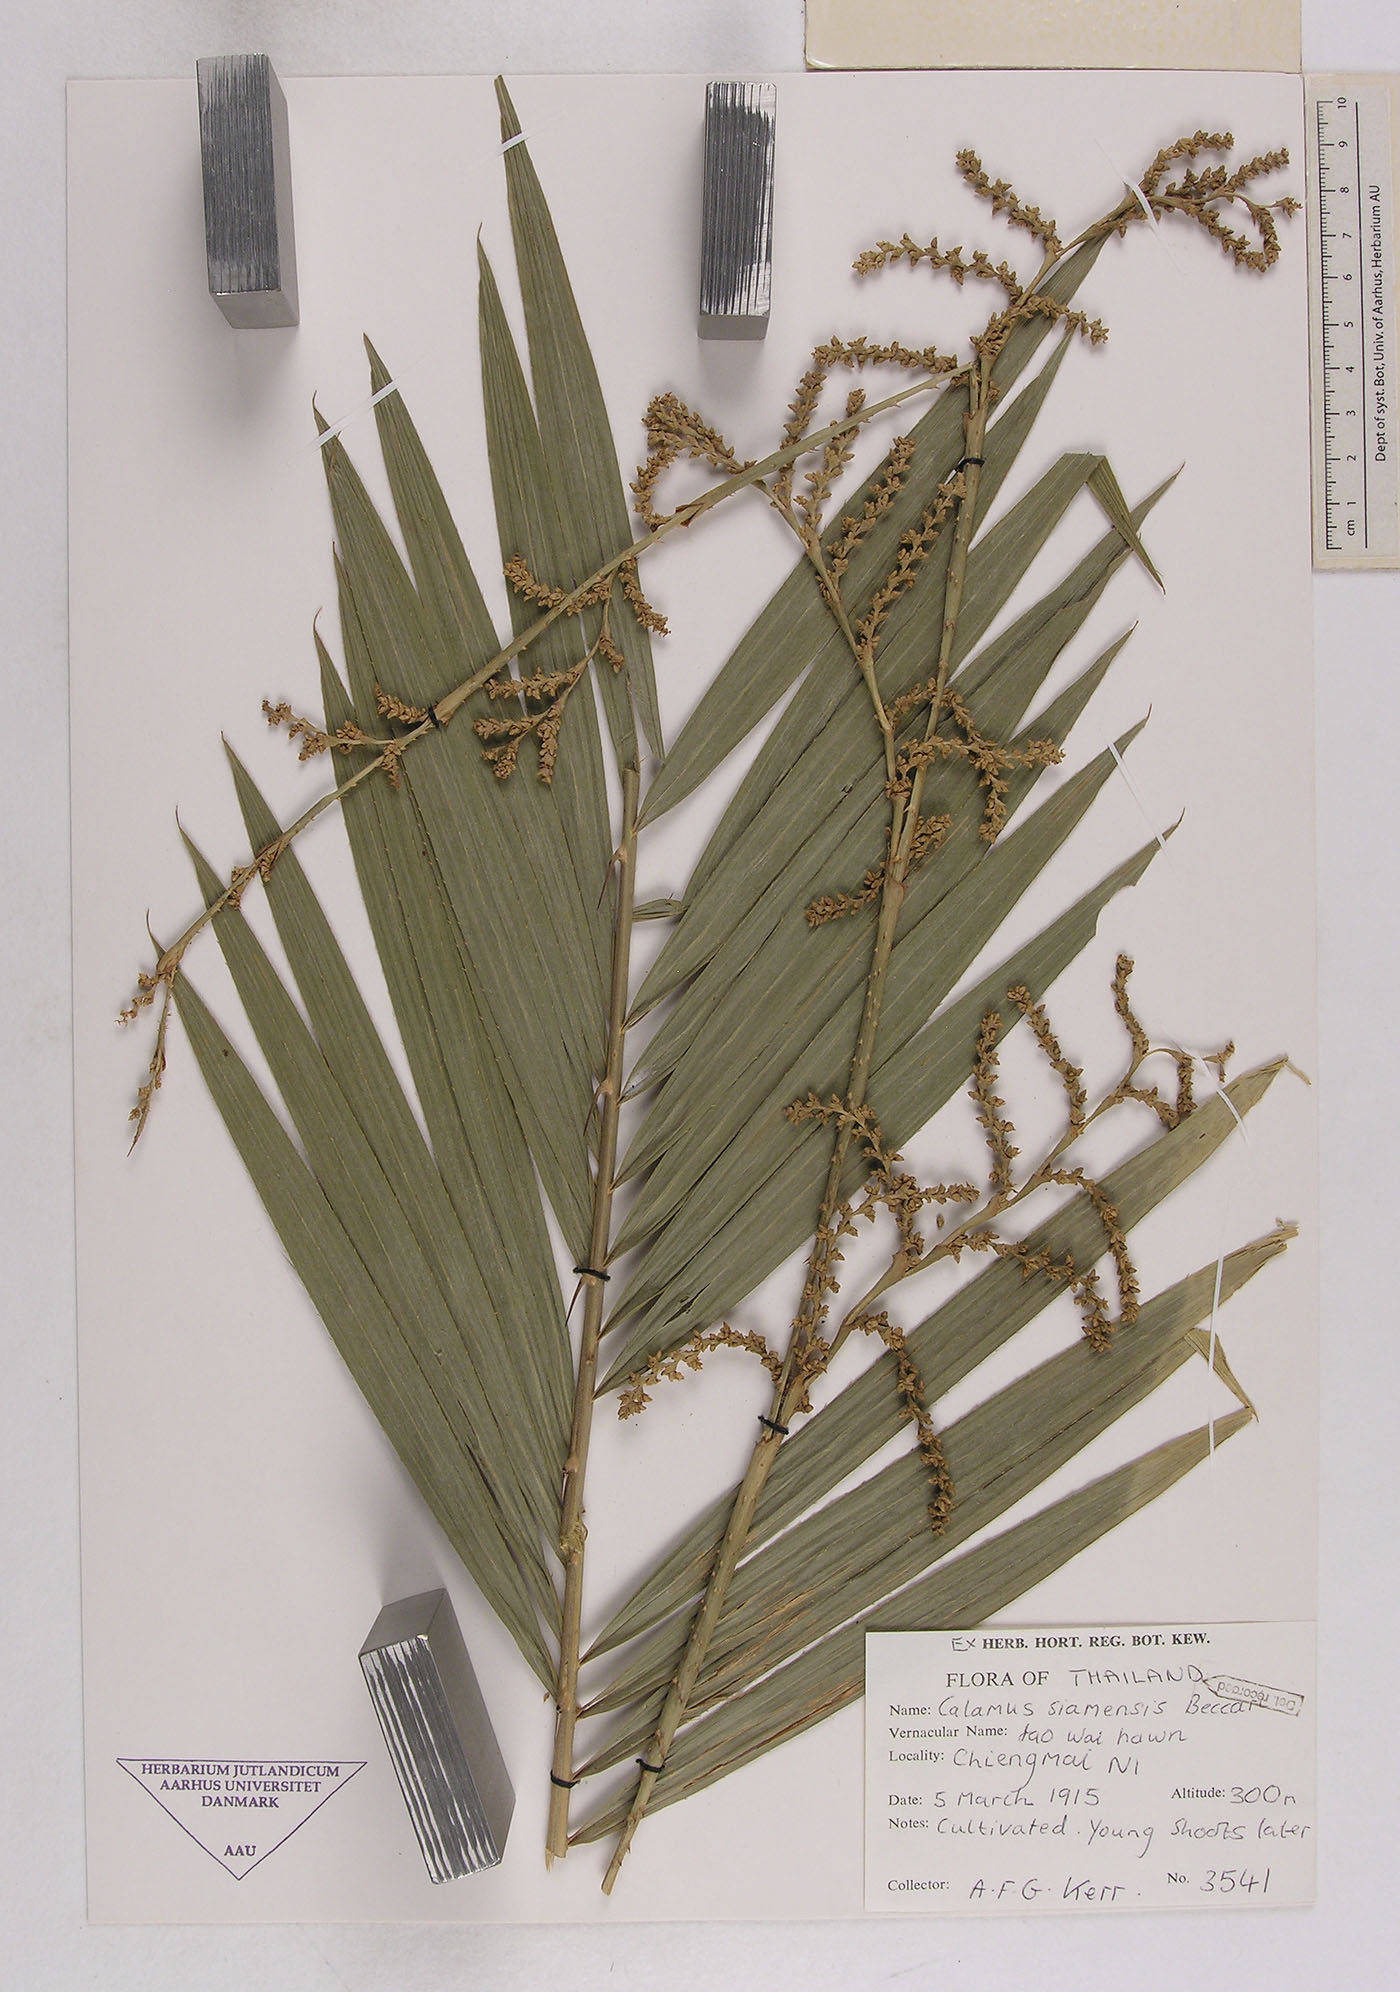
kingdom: Plantae
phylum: Tracheophyta
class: Liliopsida
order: Arecales
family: Arecaceae
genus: Calamus
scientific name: Calamus viminalis
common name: Osier-like rattan palm
